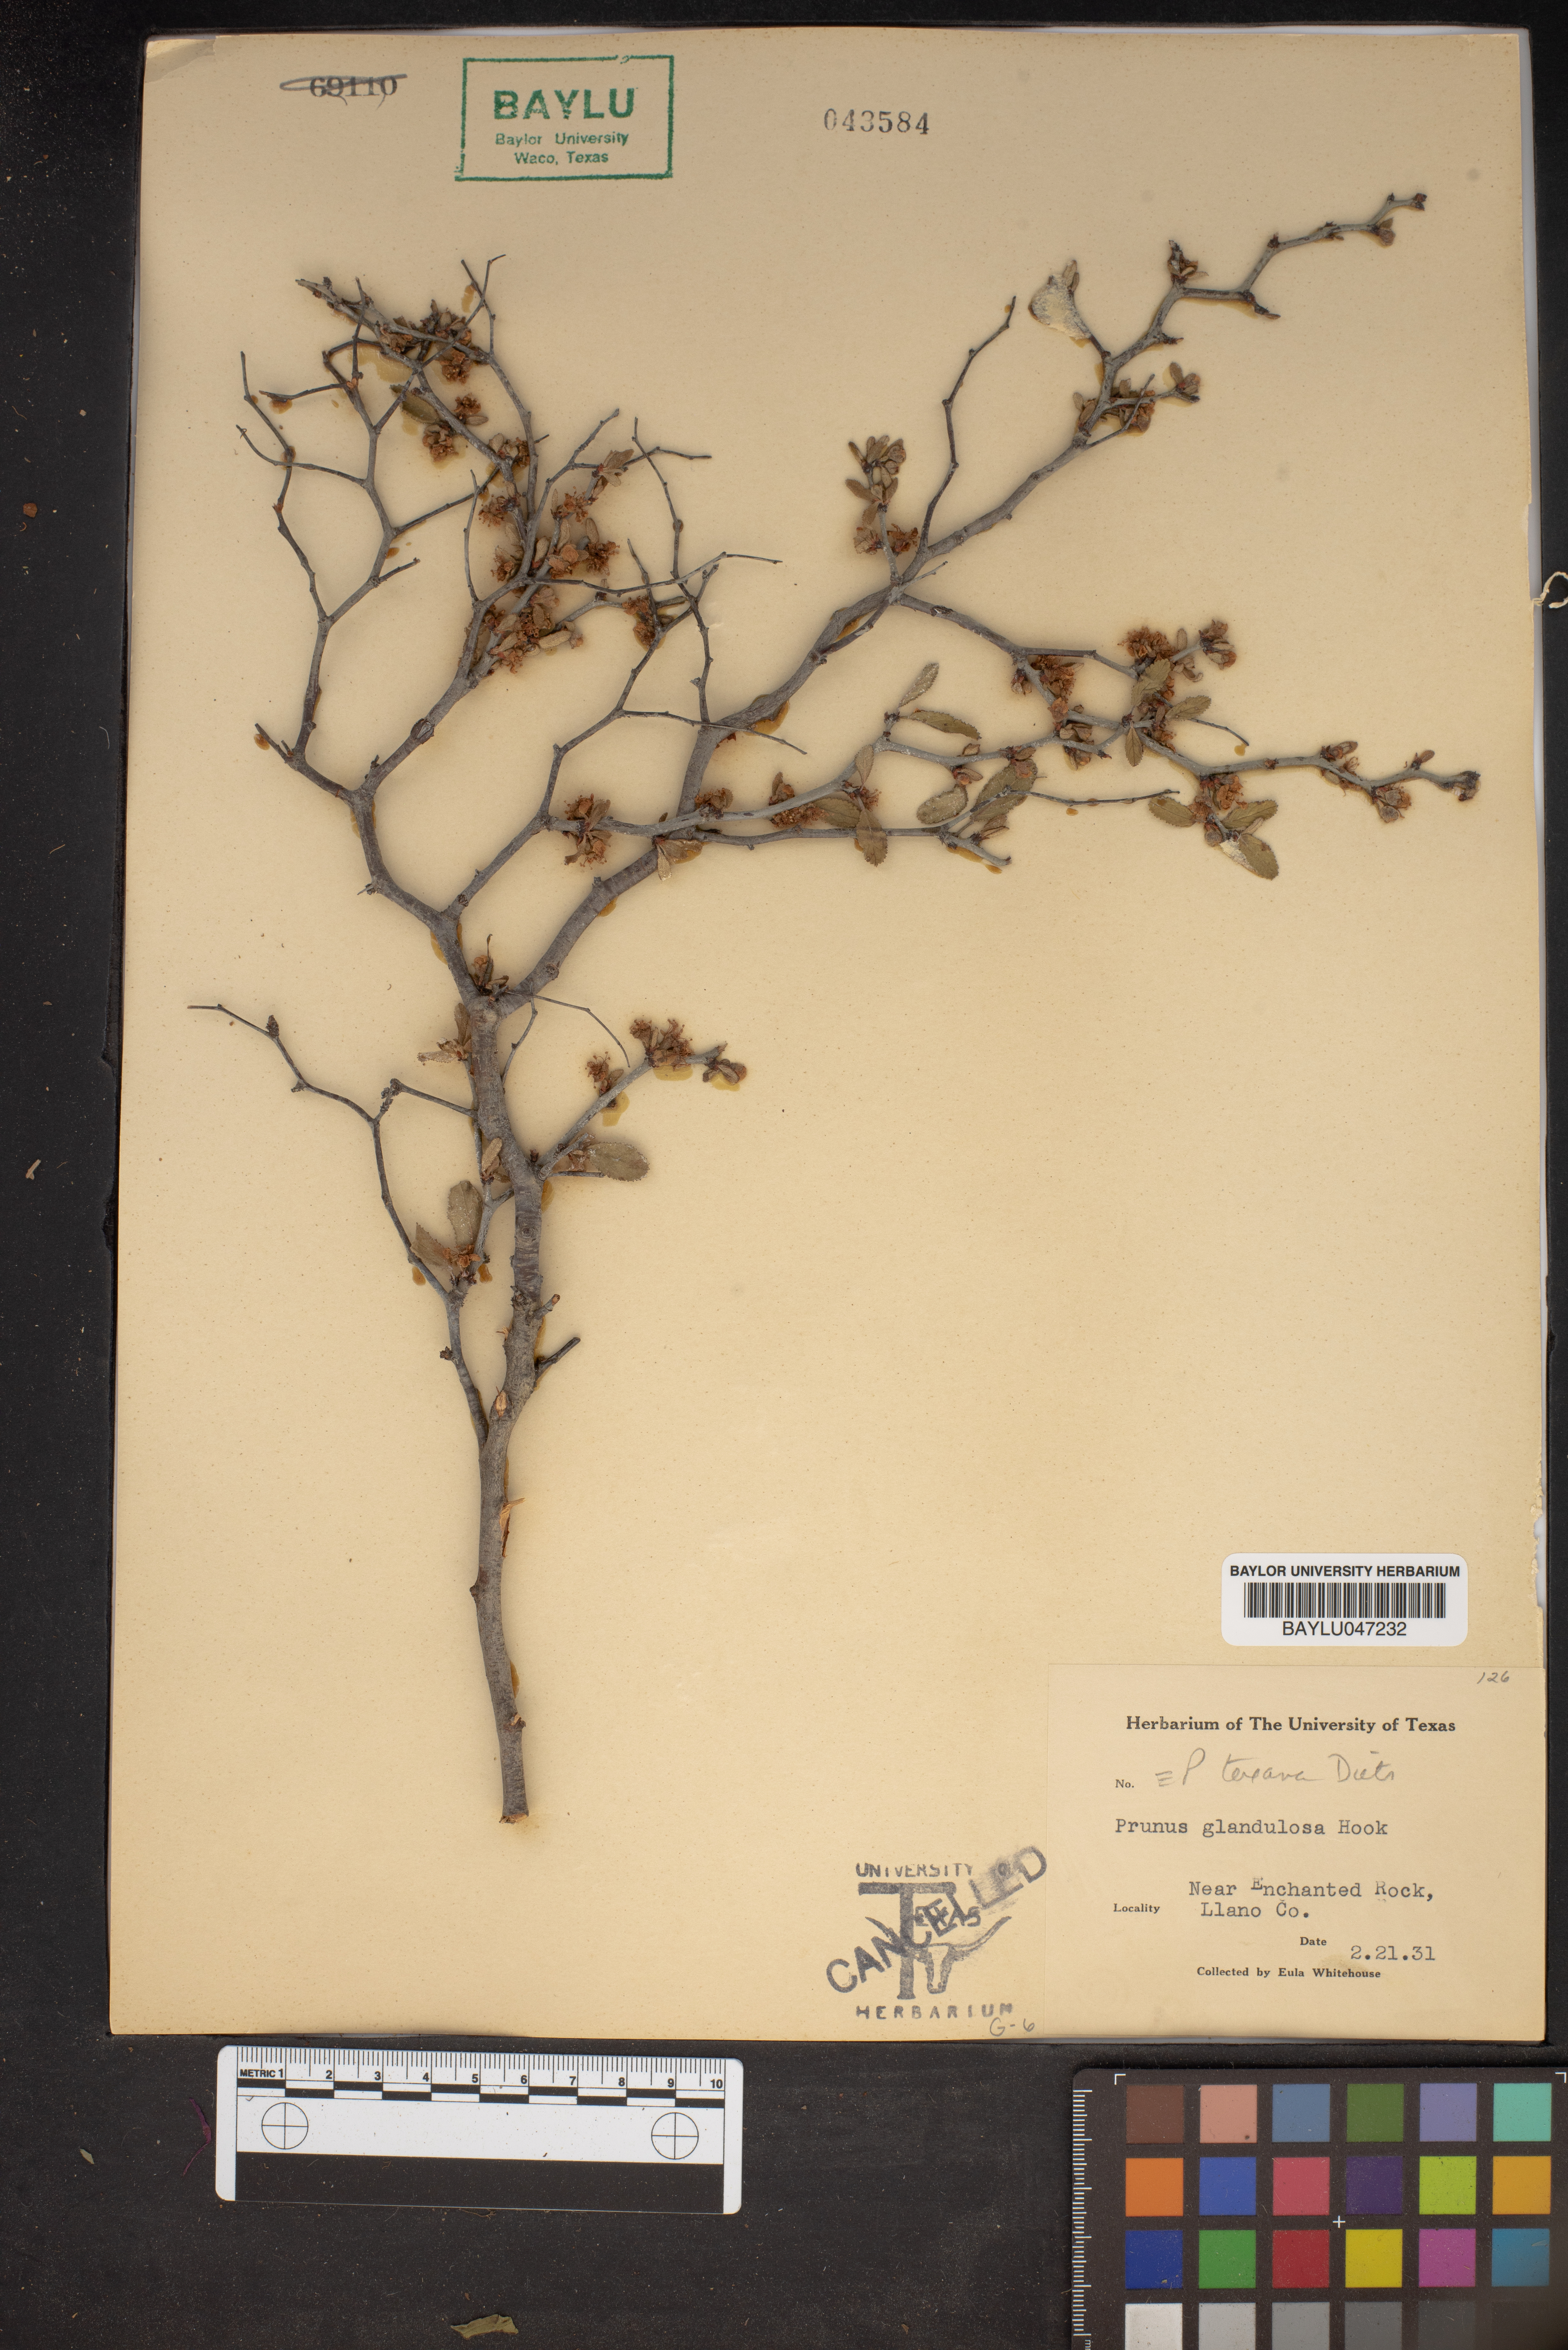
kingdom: Plantae
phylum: Tracheophyta
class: Magnoliopsida
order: Rosales
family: Rosaceae
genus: Prunus
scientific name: Prunus glandulosa
